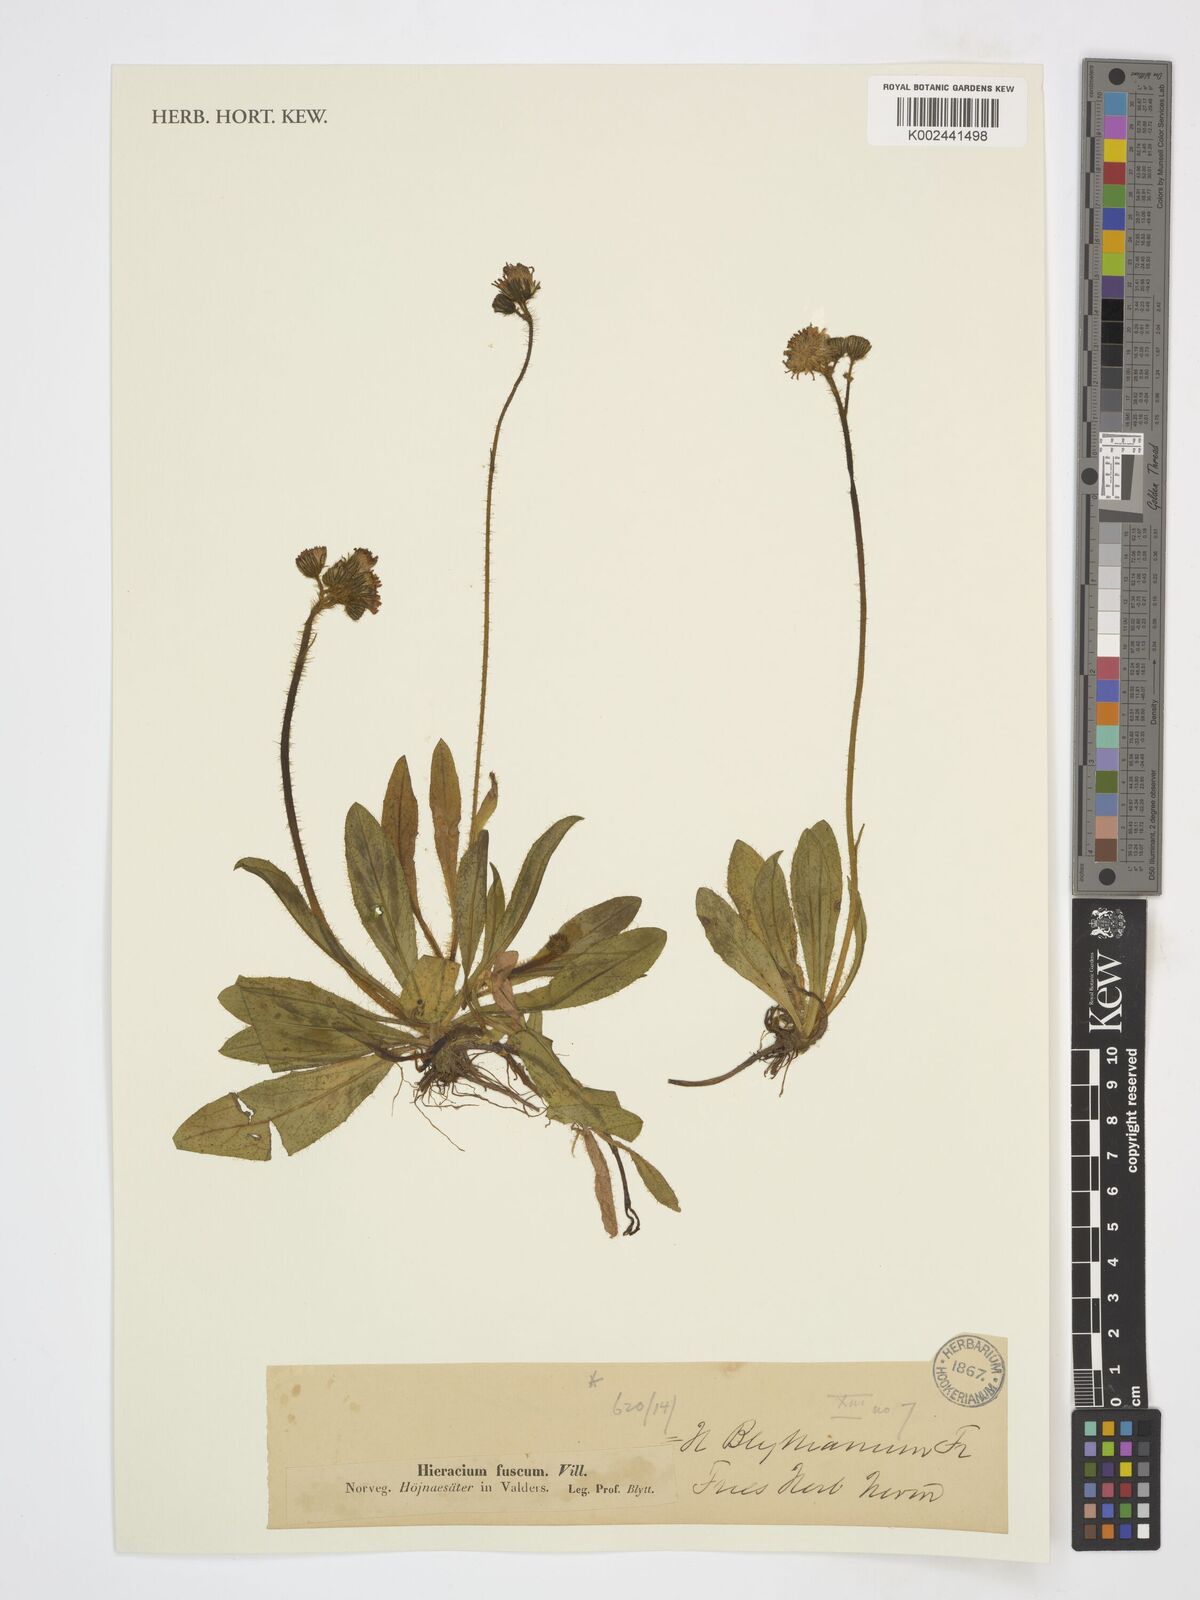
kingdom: Plantae
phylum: Tracheophyta
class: Magnoliopsida
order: Asterales
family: Asteraceae
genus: Pilosella
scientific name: Pilosella fusca
